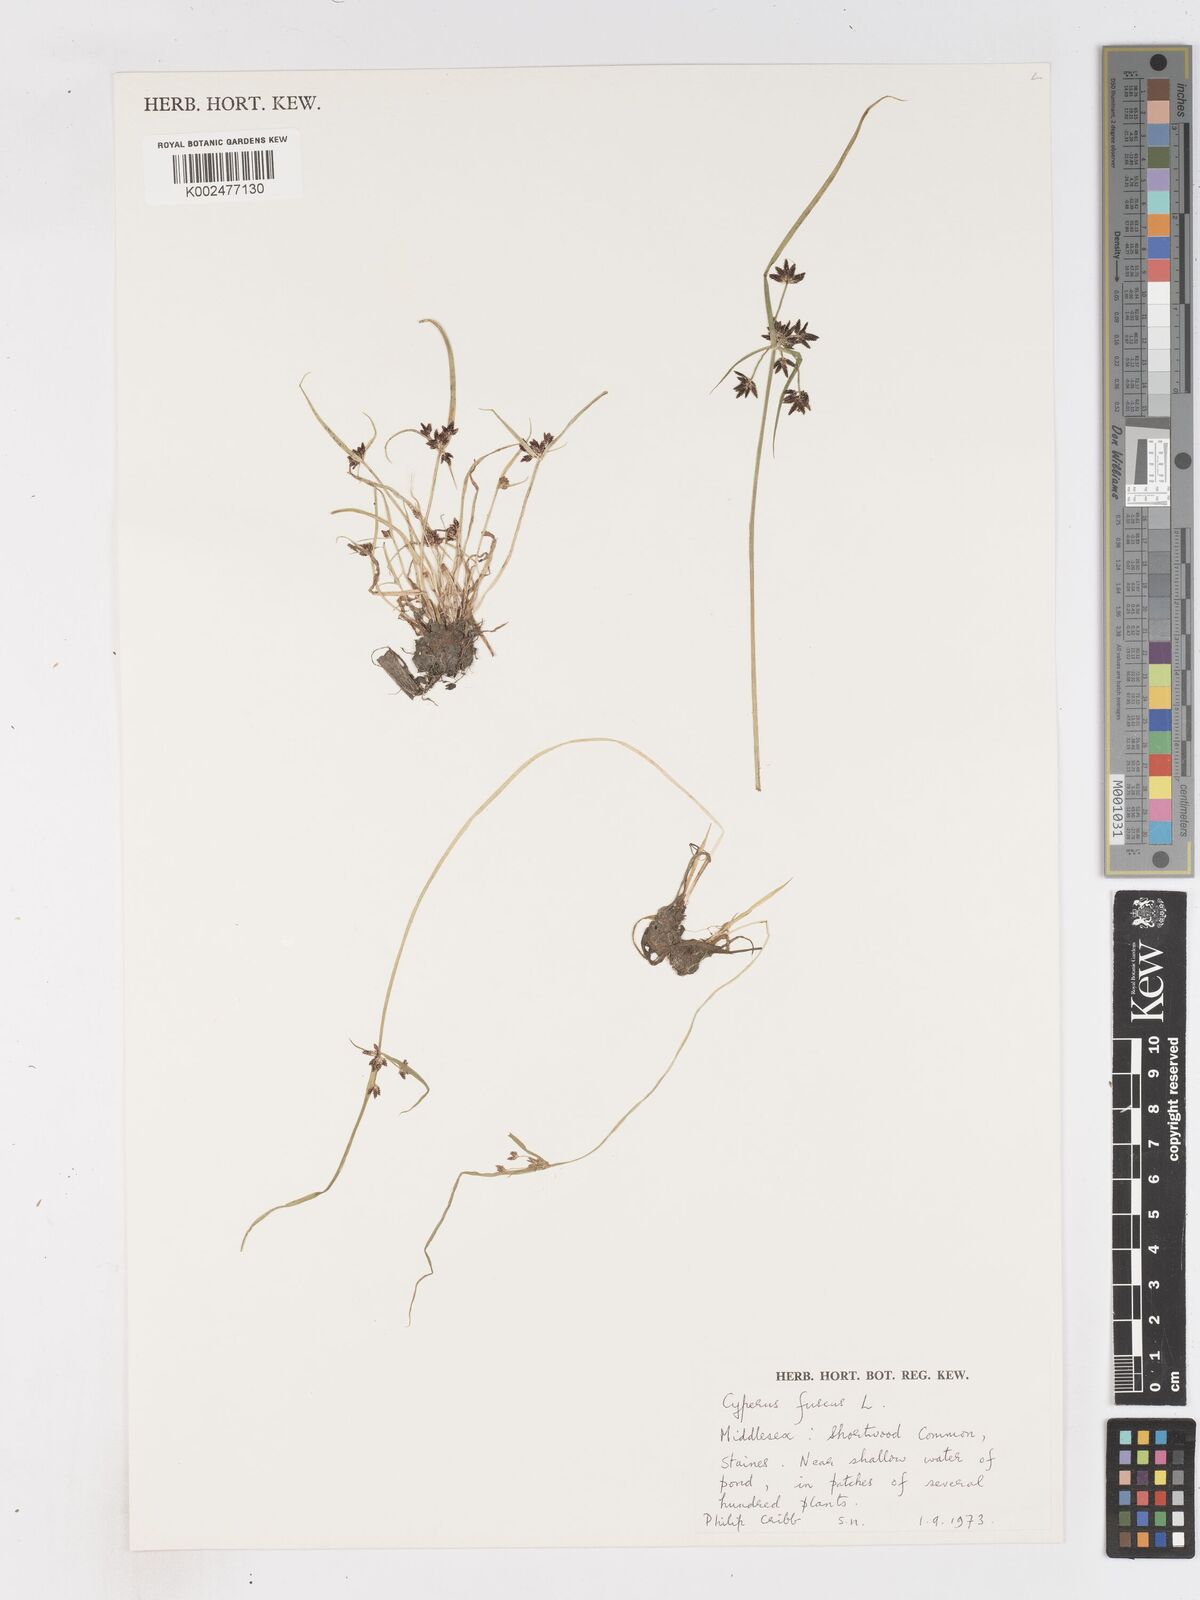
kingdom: Plantae
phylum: Tracheophyta
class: Liliopsida
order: Poales
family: Cyperaceae
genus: Cyperus
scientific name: Cyperus fuscus
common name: Brown galingale
